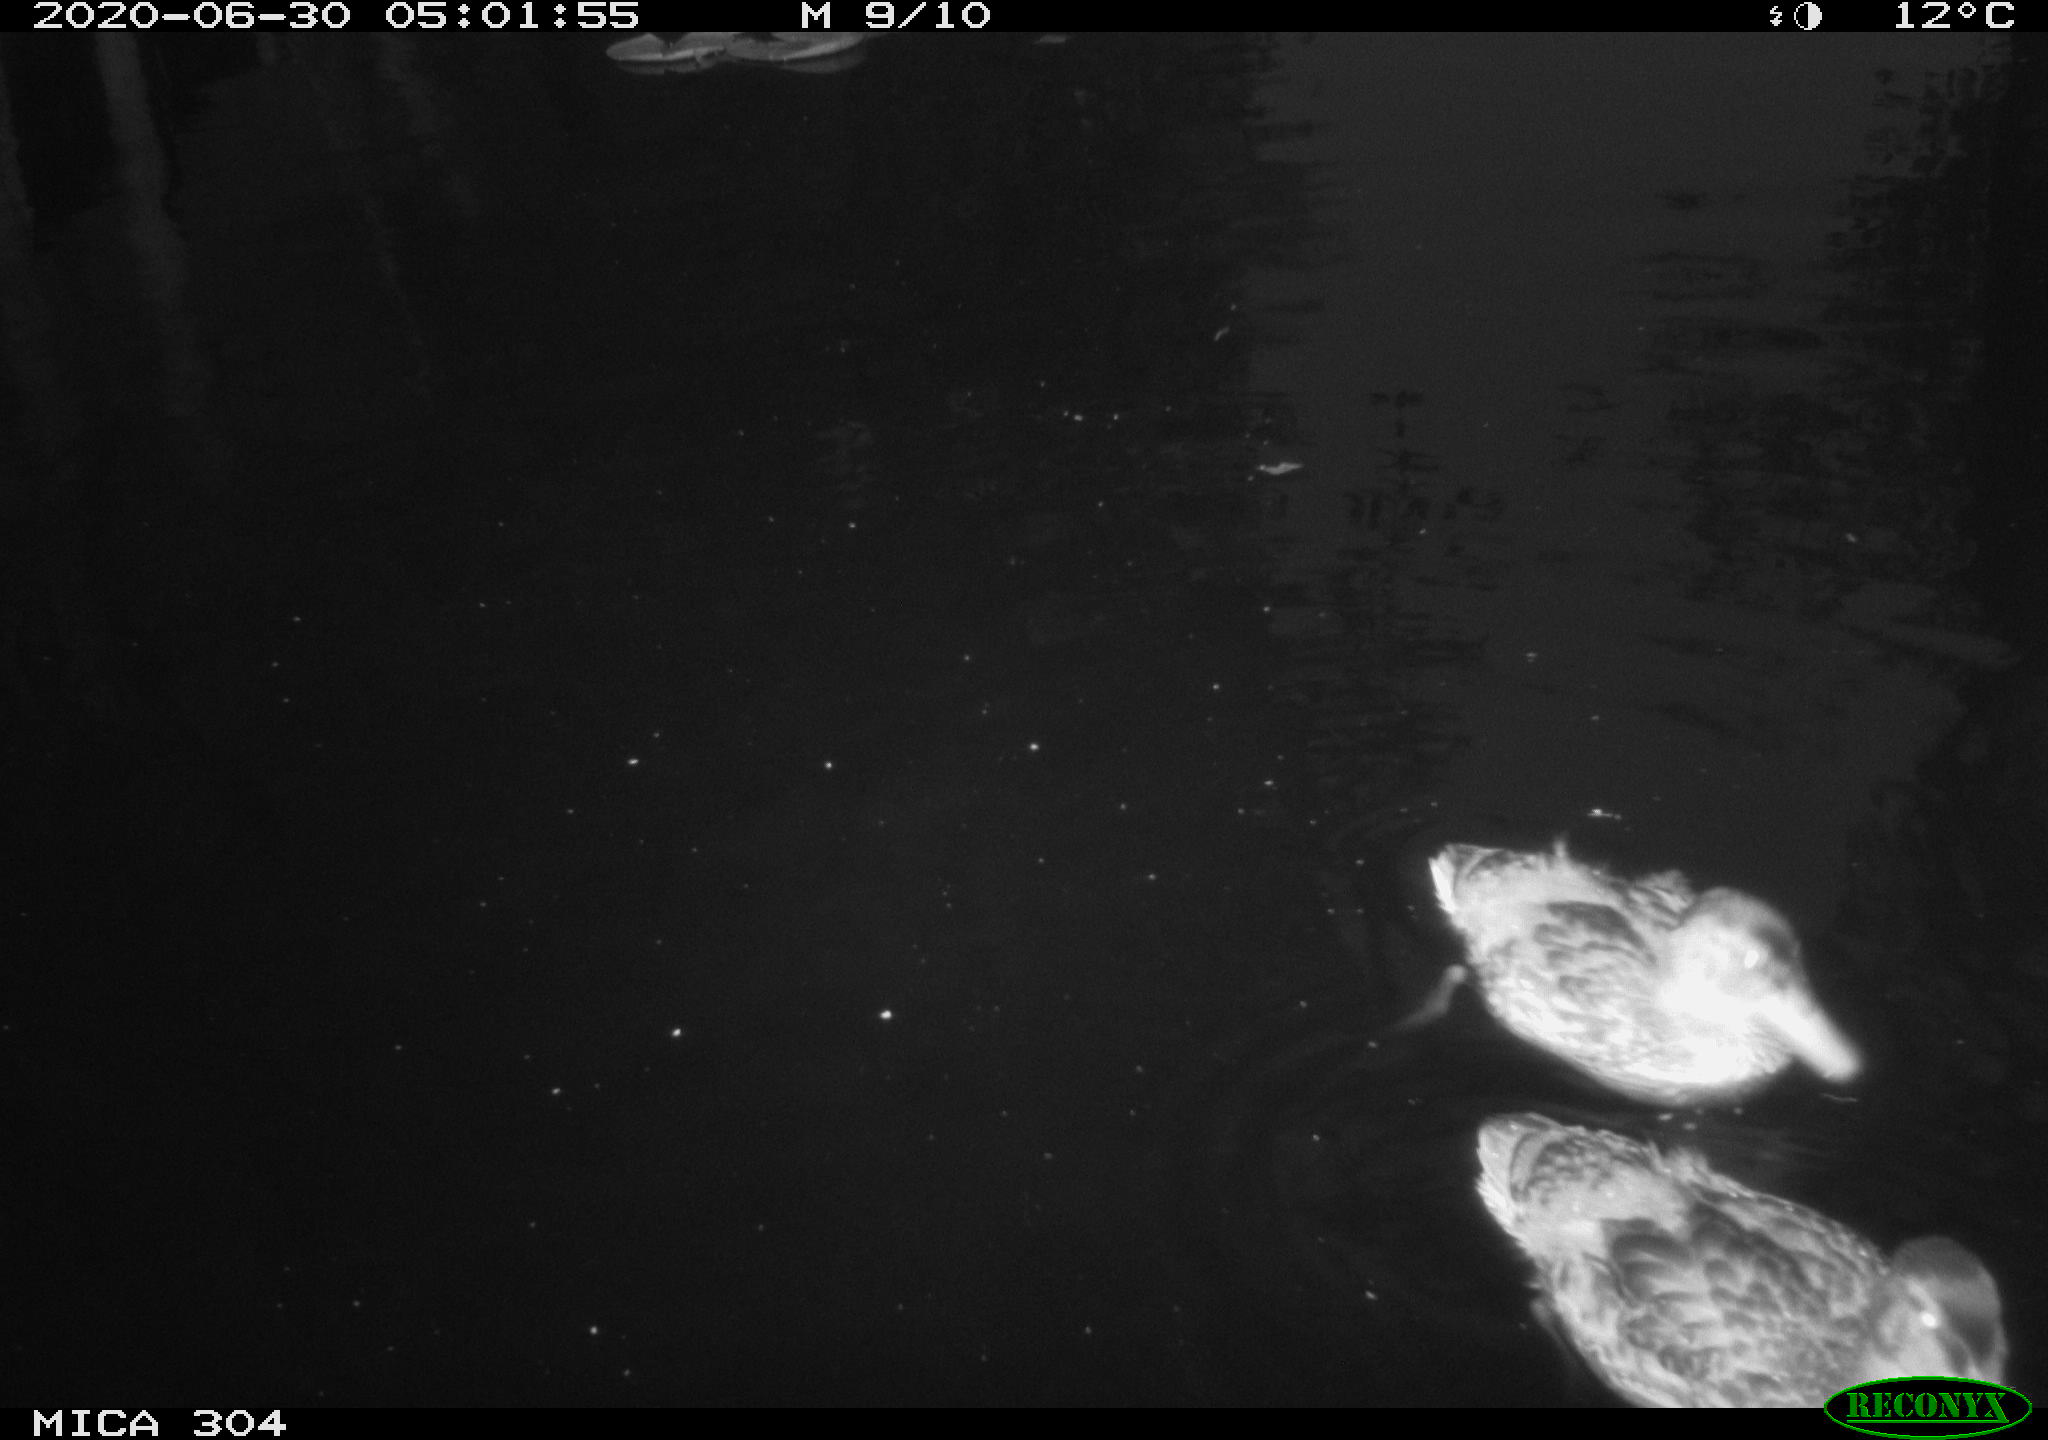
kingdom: Animalia
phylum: Chordata
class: Aves
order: Anseriformes
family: Anatidae
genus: Anas
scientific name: Anas platyrhynchos
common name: Mallard
